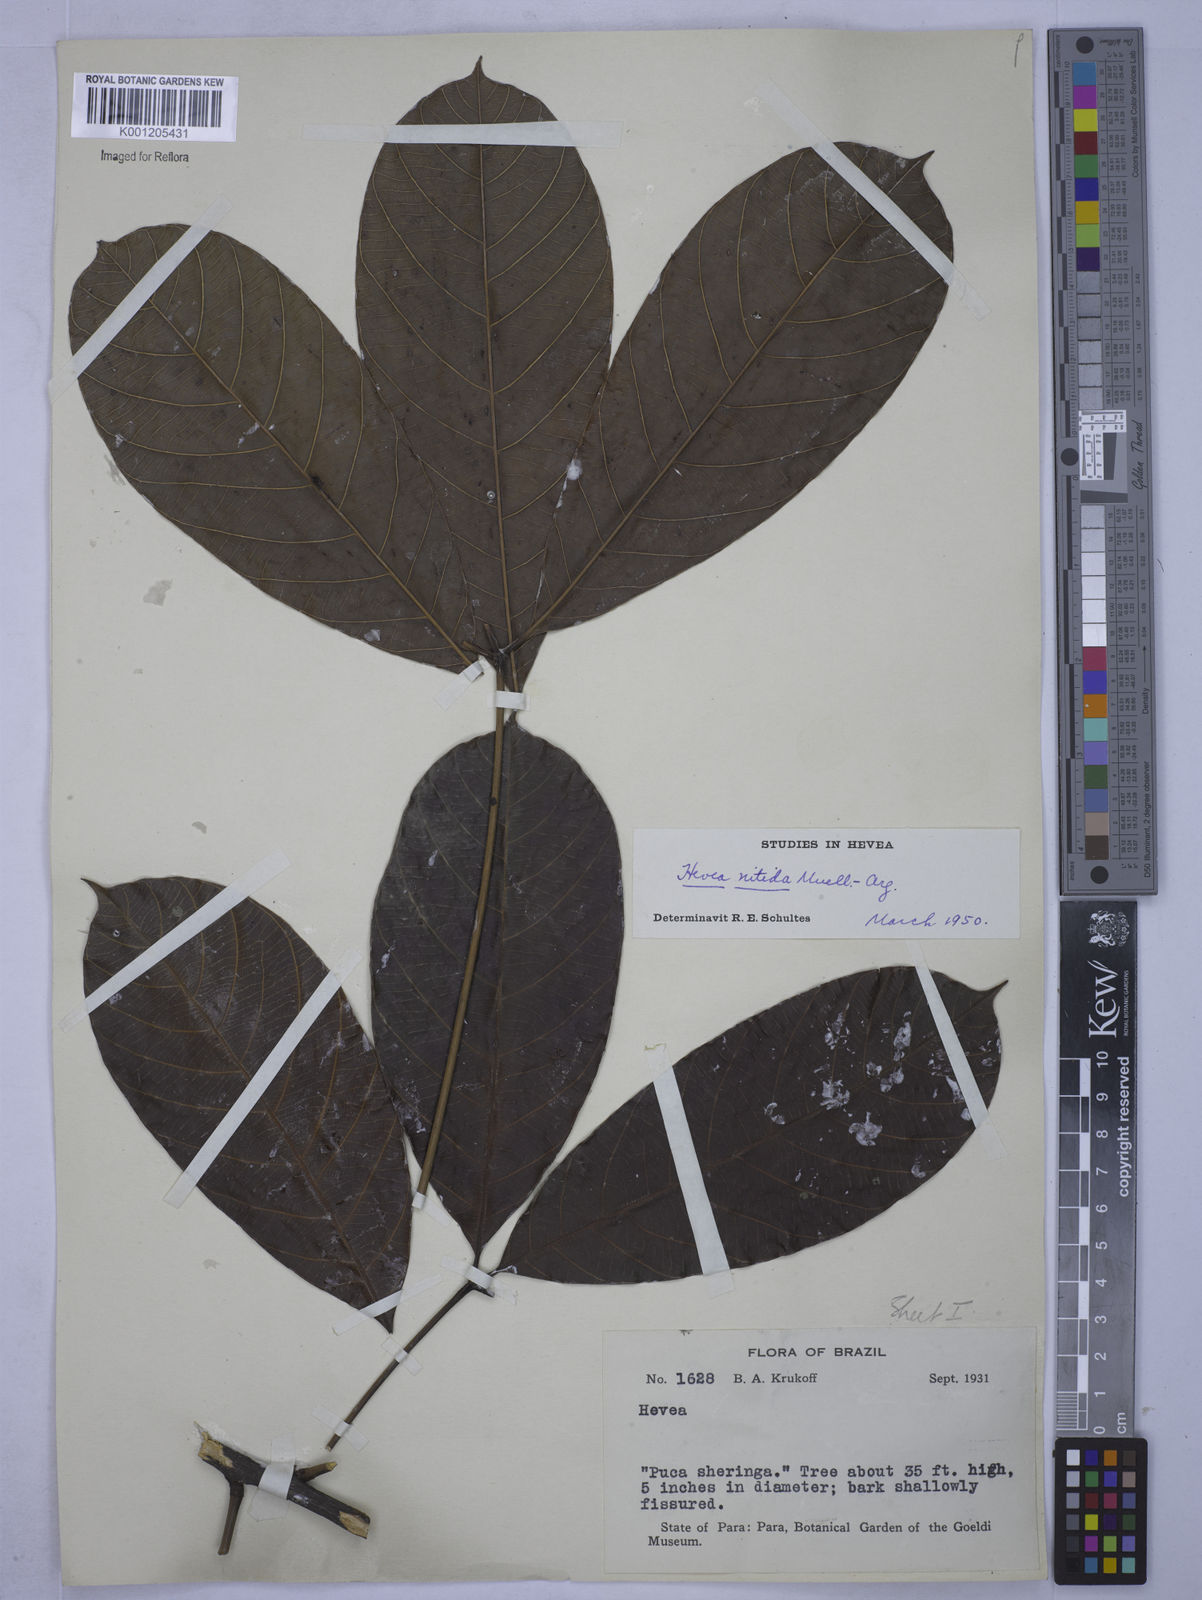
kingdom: Plantae
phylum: Tracheophyta
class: Magnoliopsida
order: Malpighiales
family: Euphorbiaceae
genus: Hevea
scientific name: Hevea
